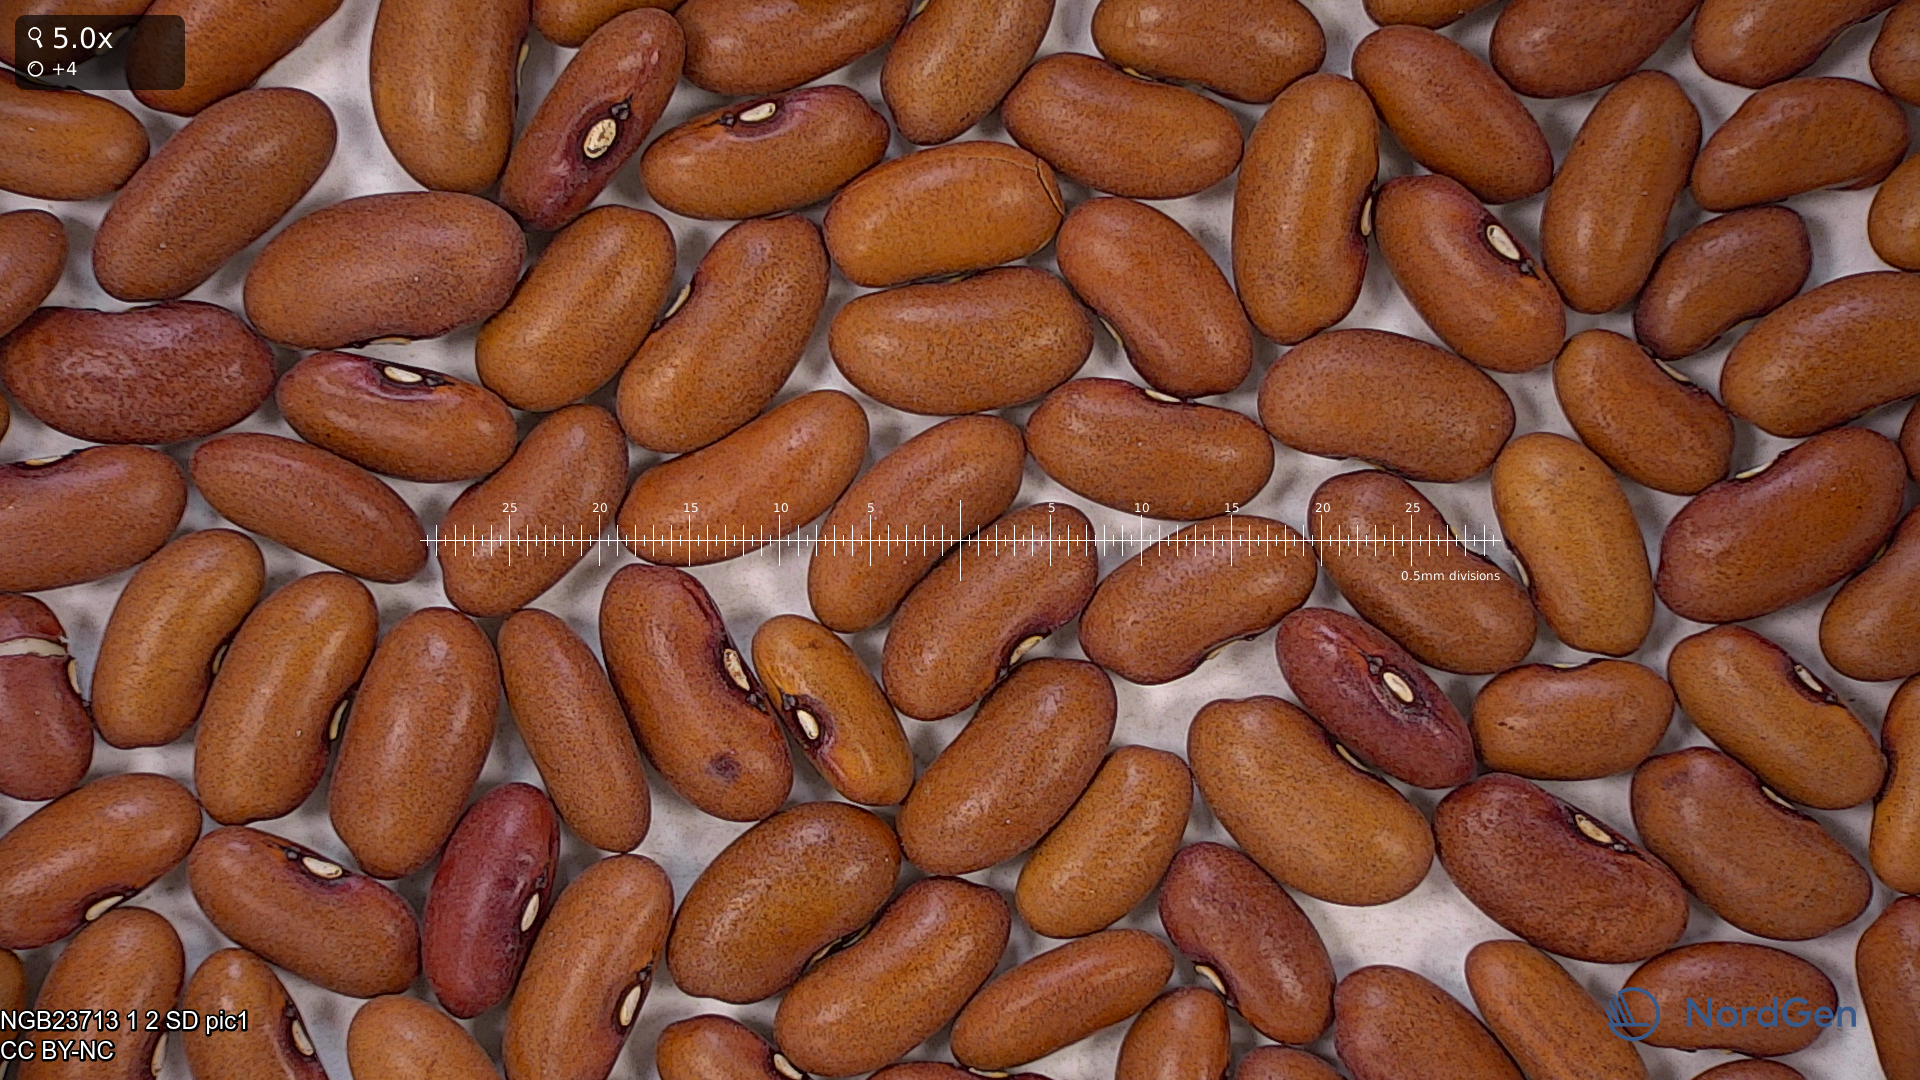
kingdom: Plantae
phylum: Tracheophyta
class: Magnoliopsida
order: Fabales
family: Fabaceae
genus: Phaseolus
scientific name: Phaseolus vulgaris
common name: Bean
